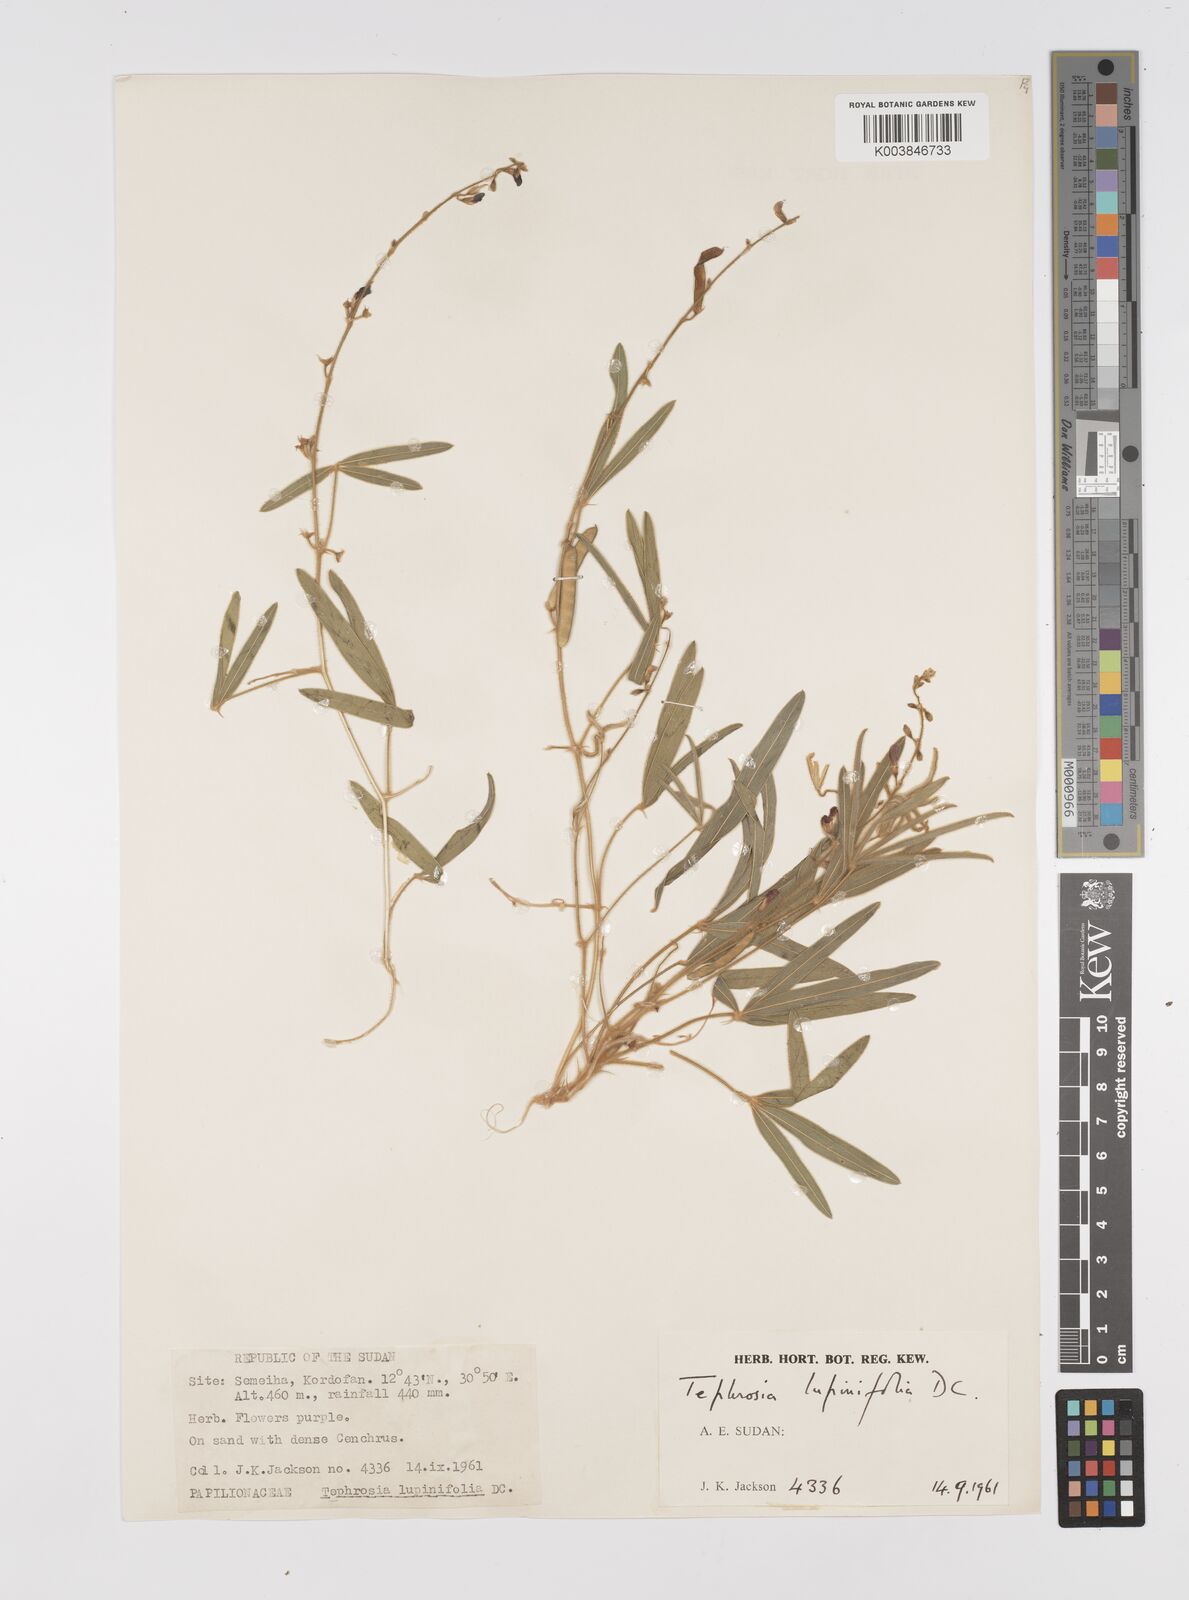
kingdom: Plantae
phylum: Tracheophyta
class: Magnoliopsida
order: Fabales
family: Fabaceae
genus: Tephrosia
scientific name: Tephrosia lupinifolia
